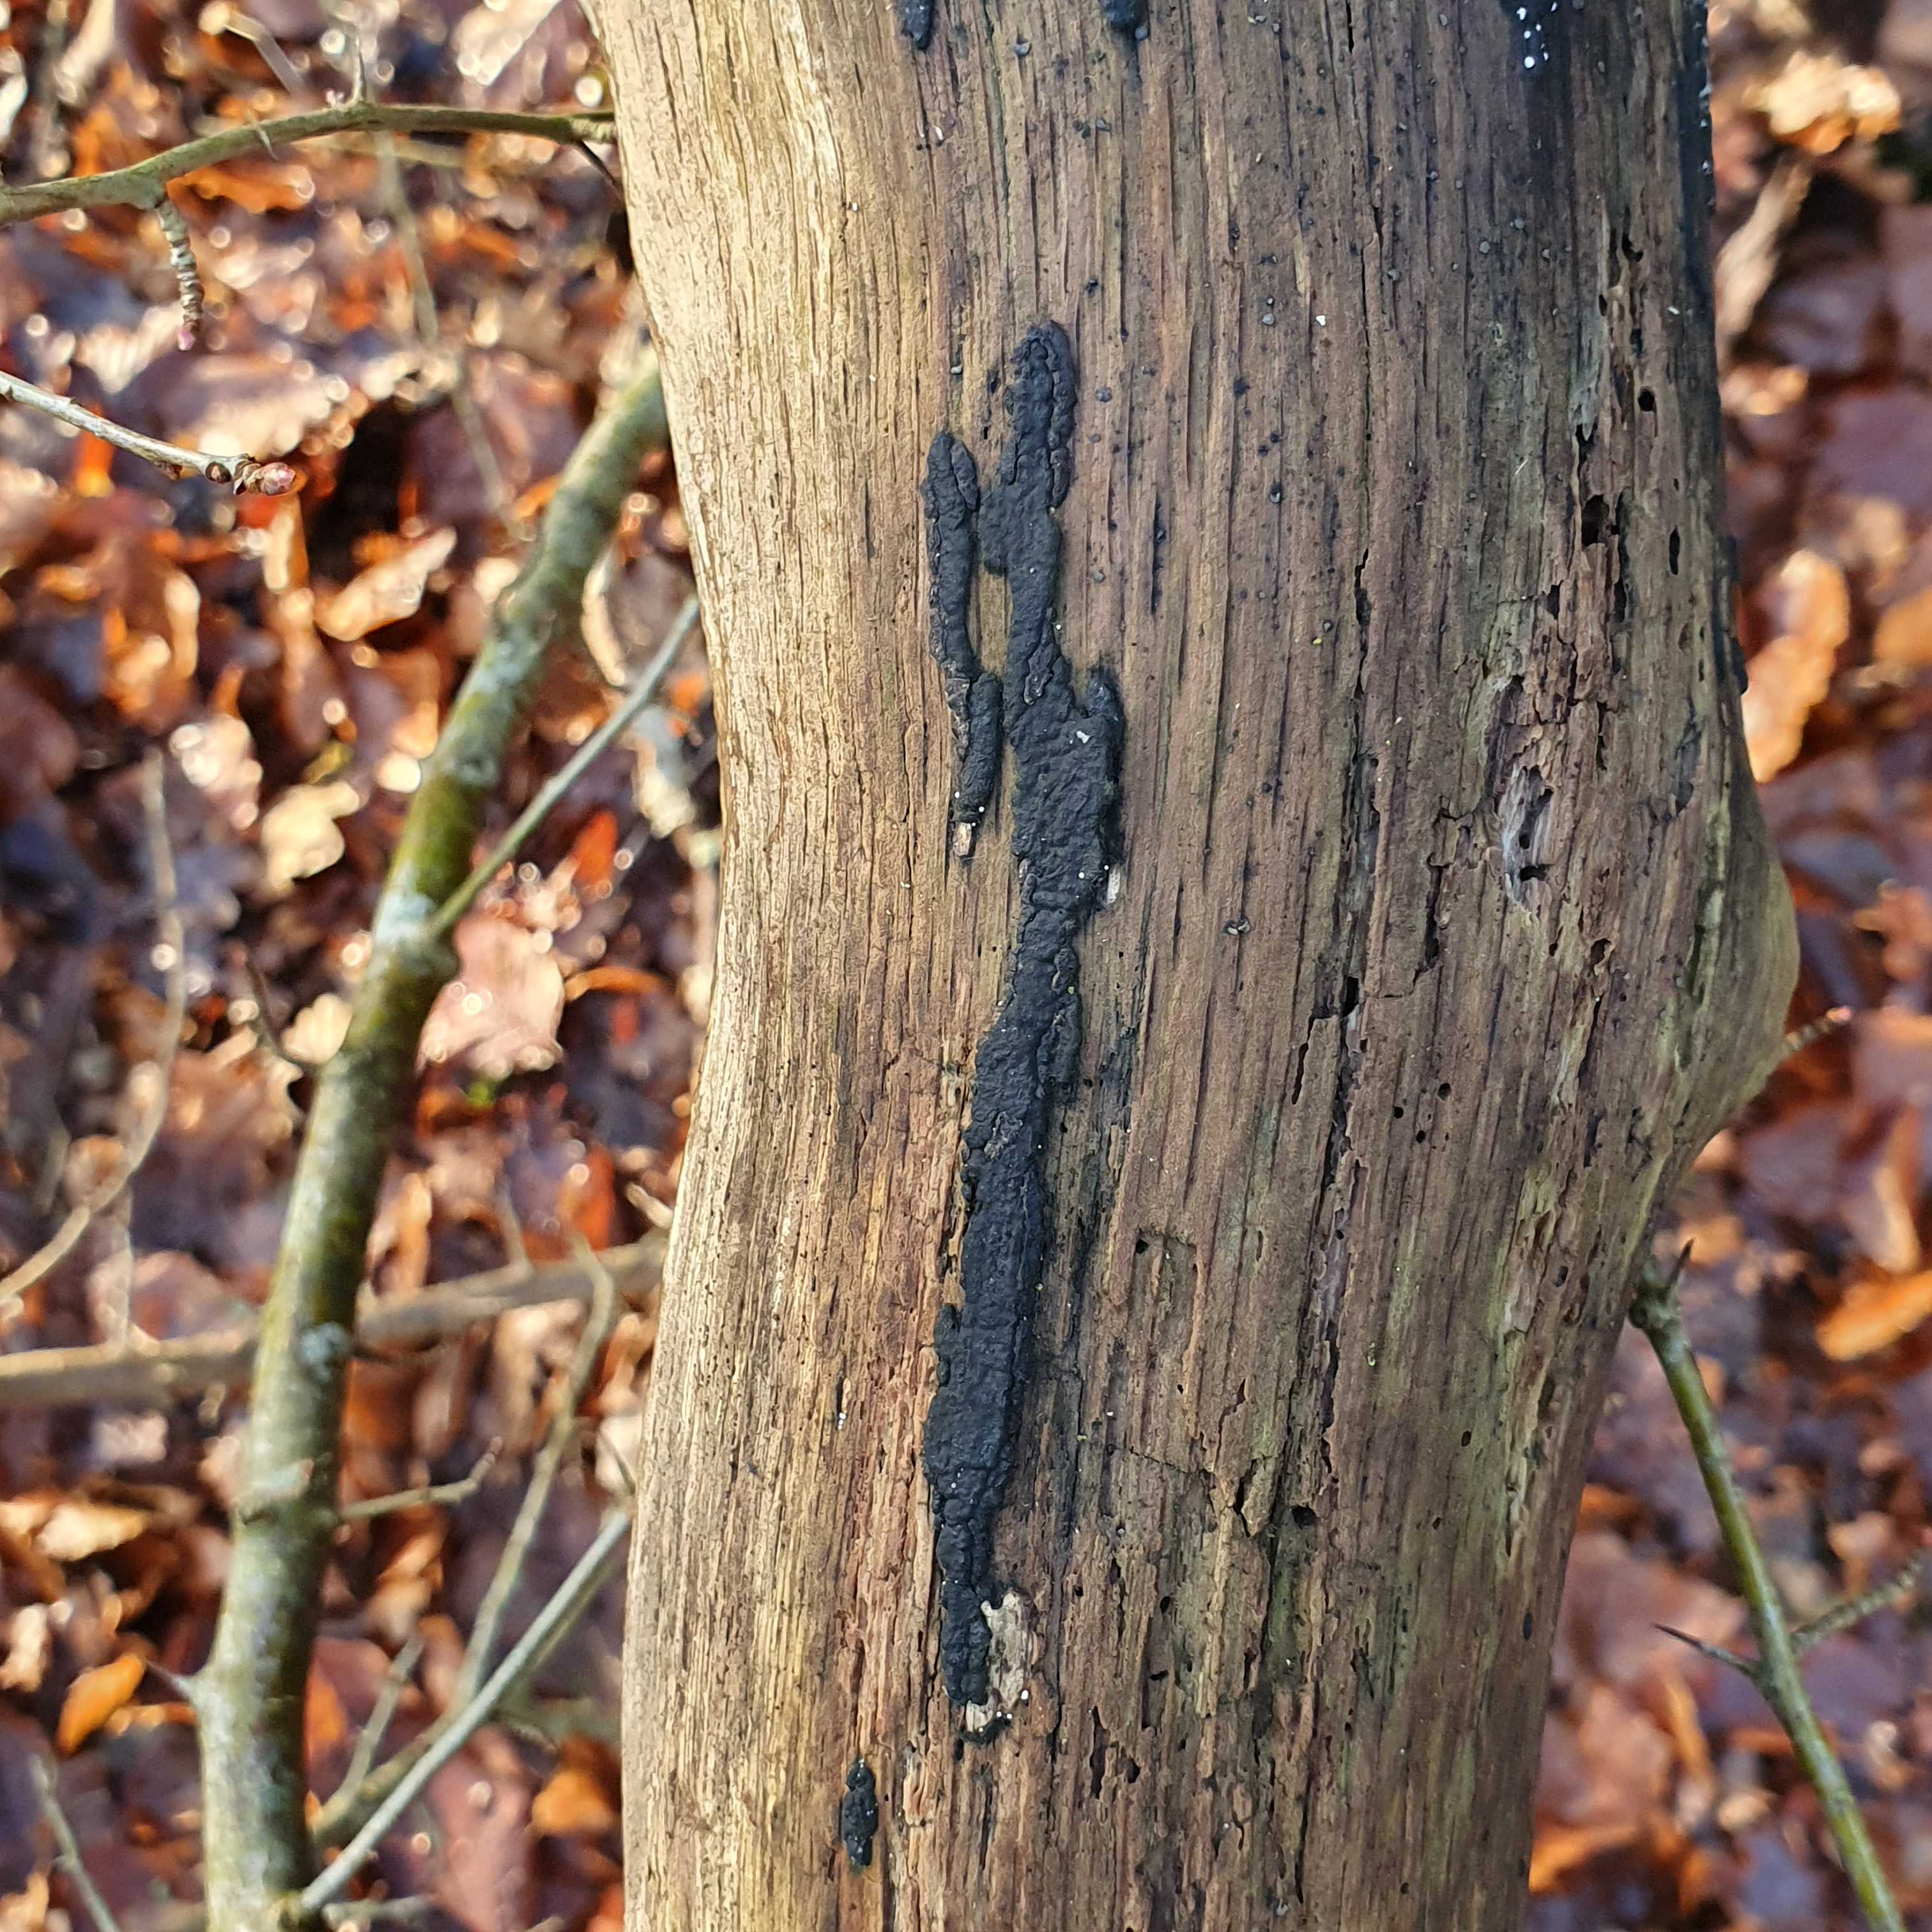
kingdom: Fungi
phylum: Ascomycota
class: Sordariomycetes
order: Xylariales
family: Xylariaceae
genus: Nemania
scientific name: Nemania serpens
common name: almindelig kuldyne
